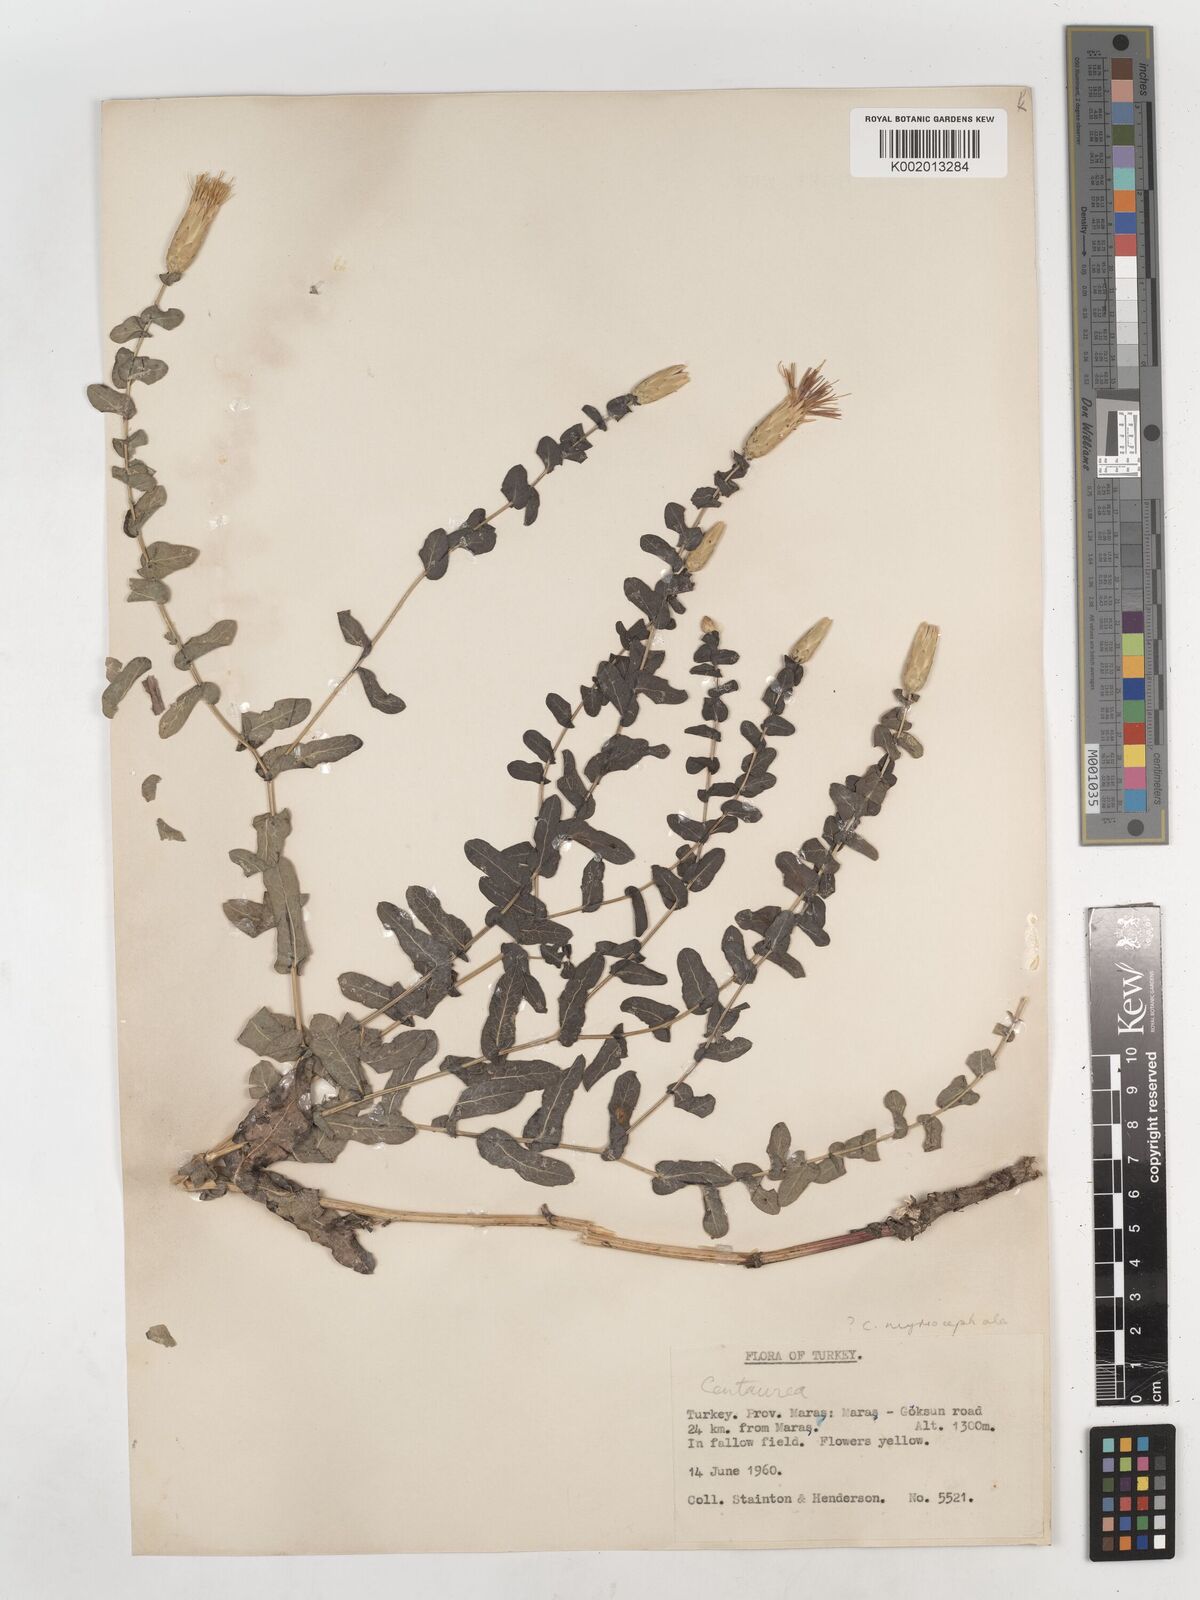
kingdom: Plantae
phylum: Tracheophyta
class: Magnoliopsida
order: Asterales
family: Asteraceae
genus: Klasea
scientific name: Klasea cerinthifolia
